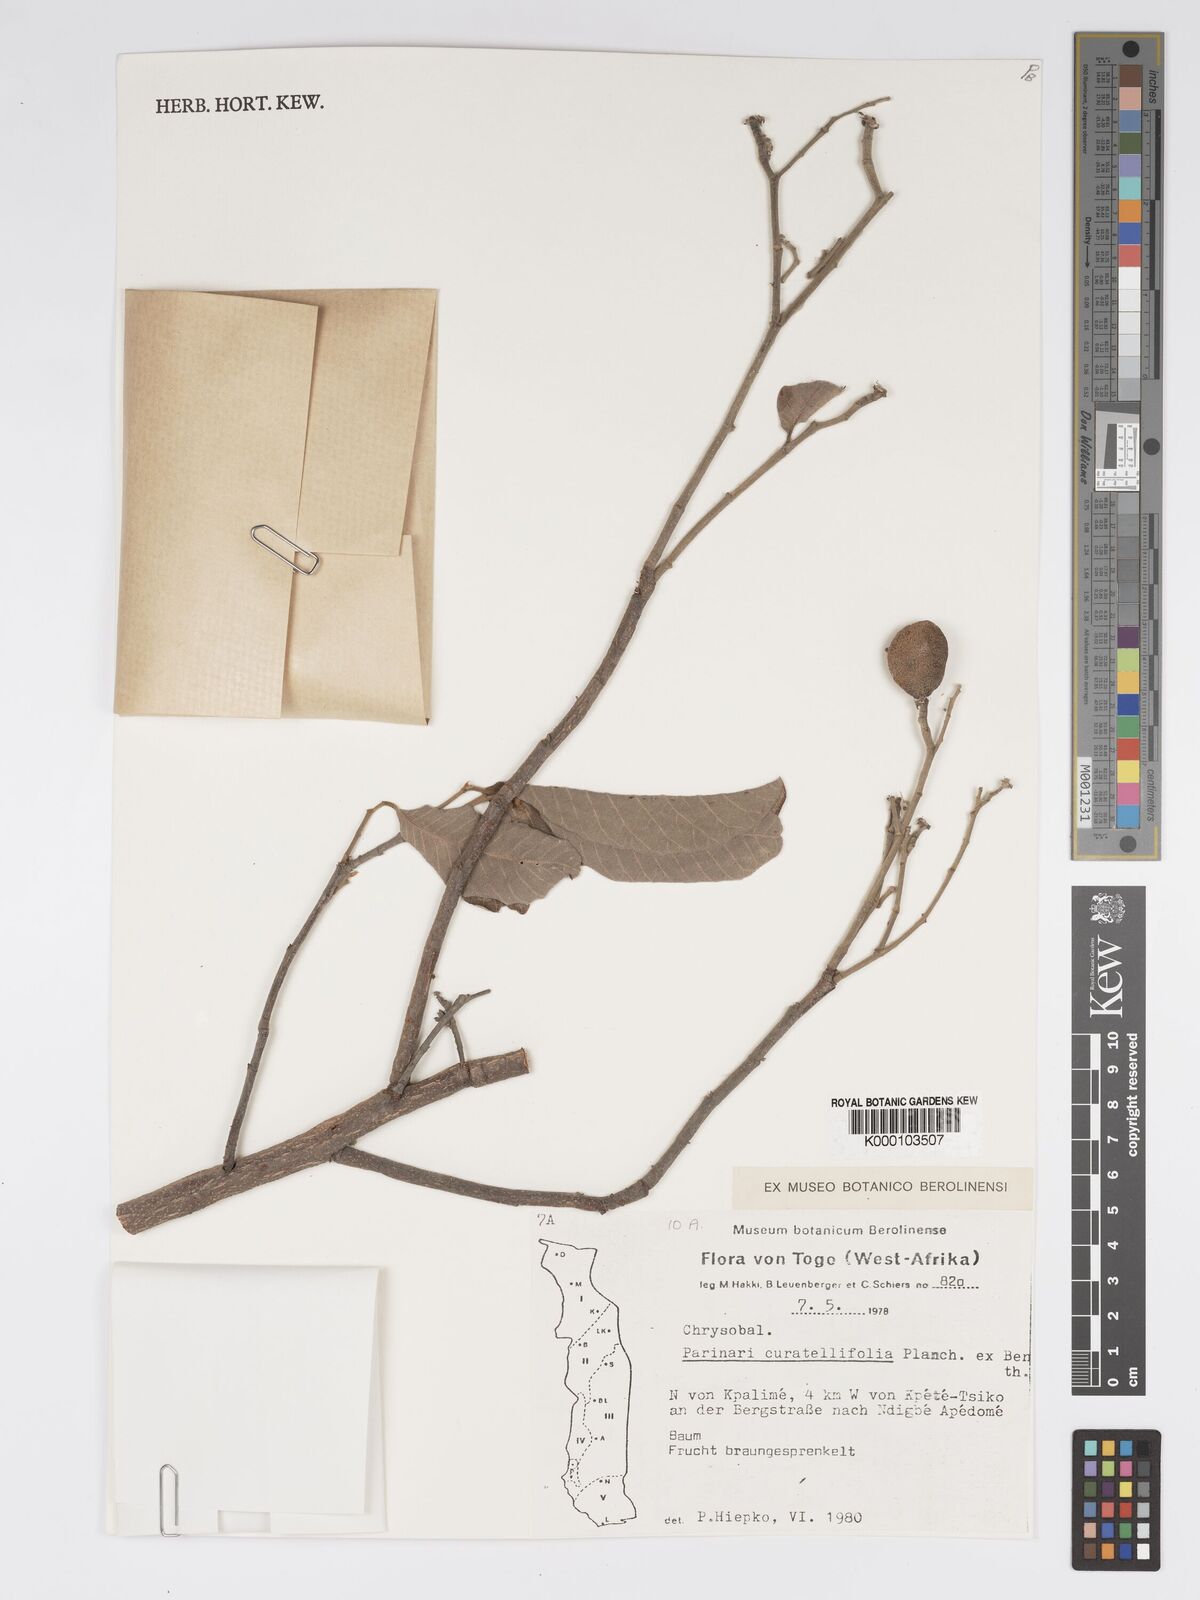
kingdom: Plantae
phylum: Tracheophyta
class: Magnoliopsida
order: Malpighiales
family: Chrysobalanaceae
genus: Parinari
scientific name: Parinari curatellifolia
